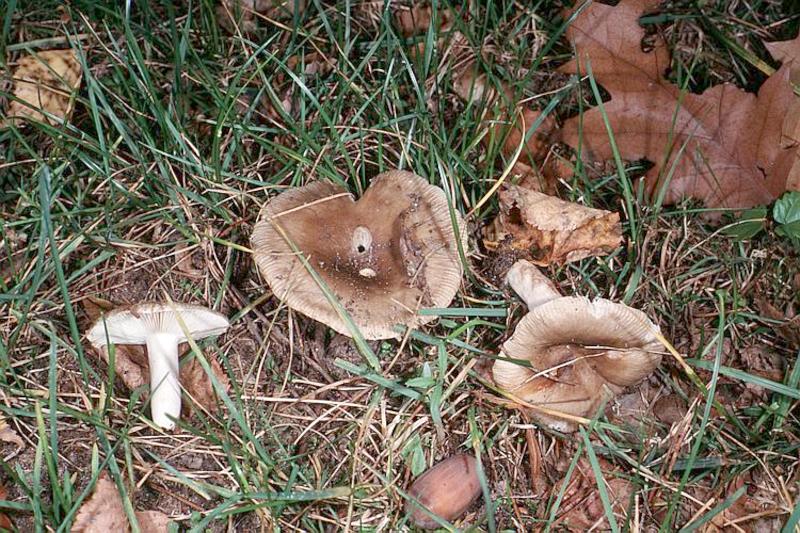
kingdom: Fungi
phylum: Basidiomycota
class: Agaricomycetes
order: Russulales
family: Russulaceae
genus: Russula
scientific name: Russula amoenolens
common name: Camembert brittlegill
